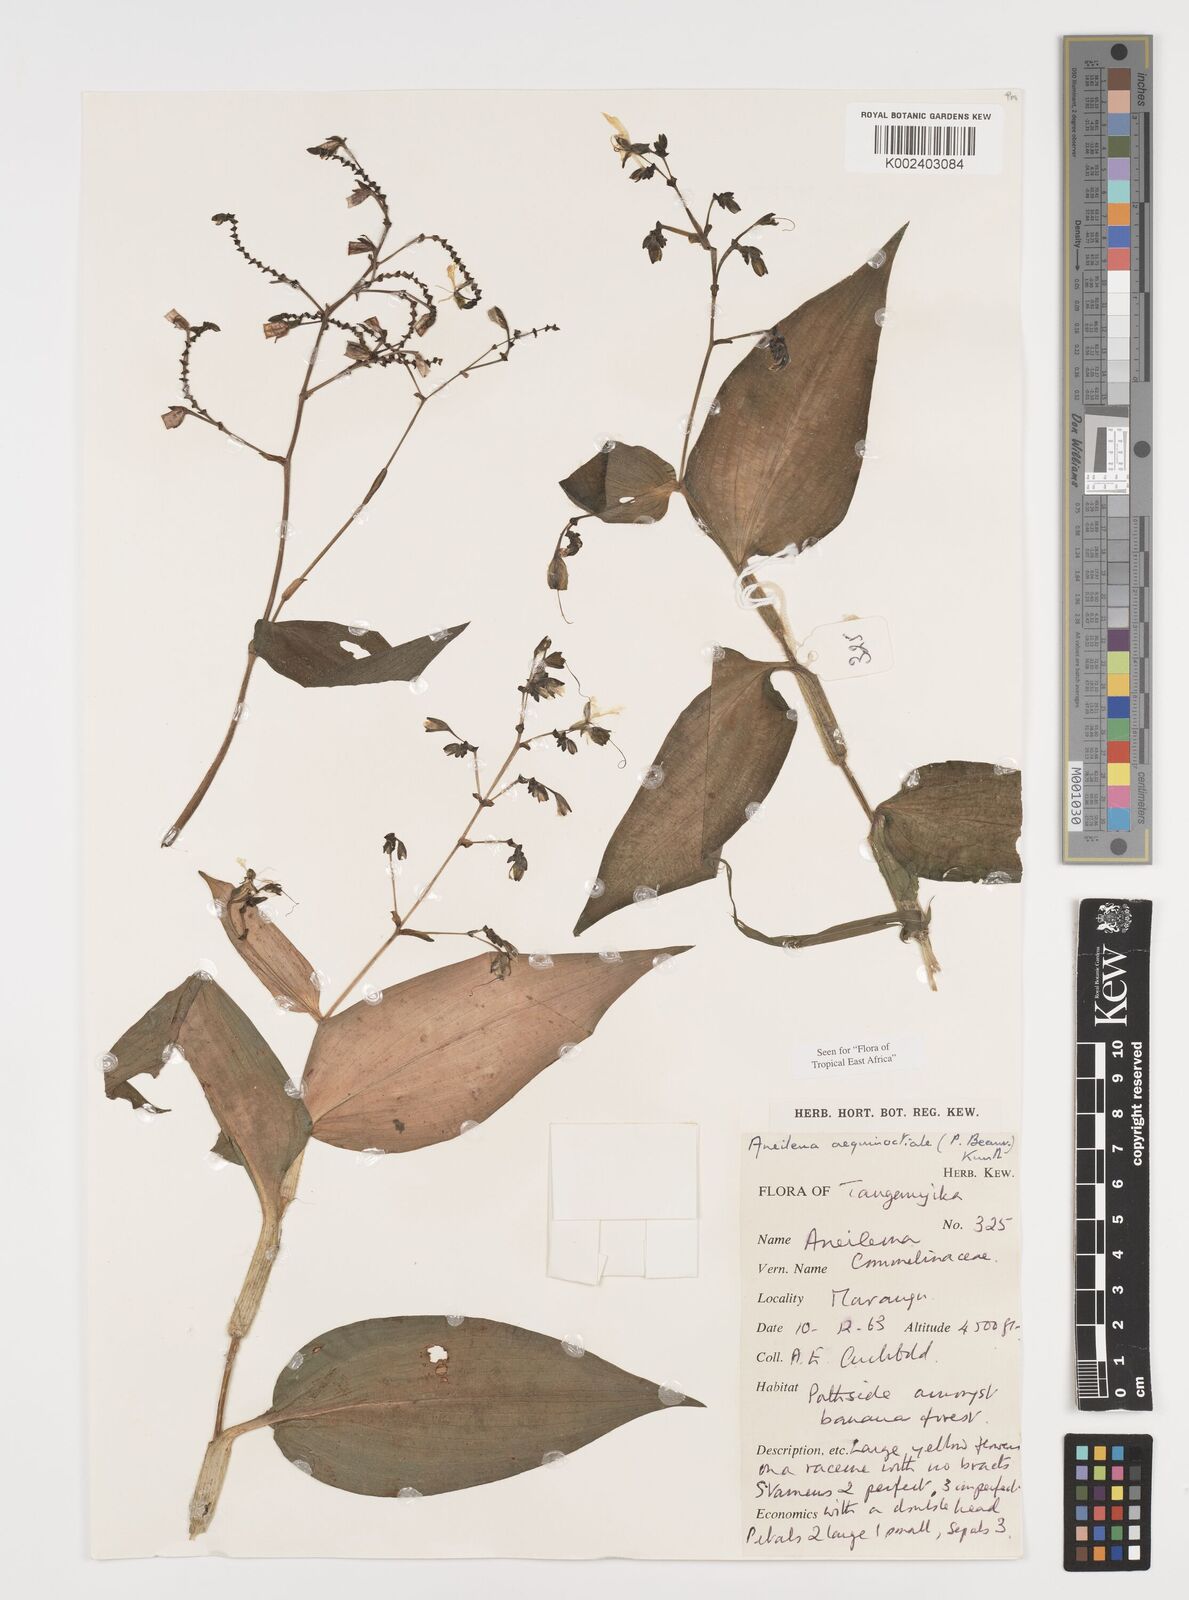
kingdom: Plantae
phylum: Tracheophyta
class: Liliopsida
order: Commelinales
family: Commelinaceae
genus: Aneilema
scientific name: Aneilema aequinoctiale
